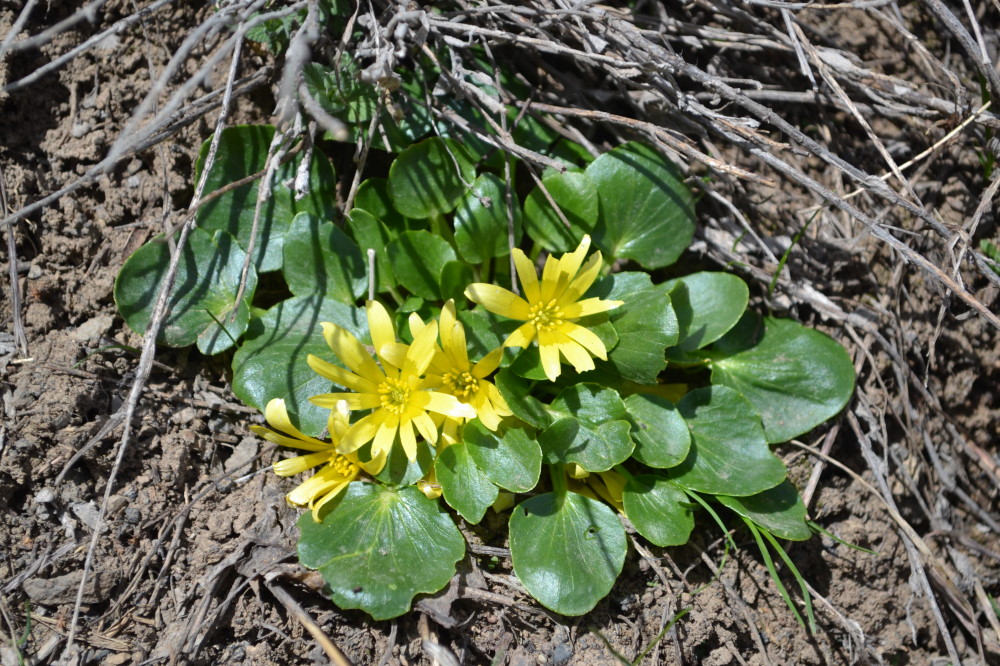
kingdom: Plantae
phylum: Tracheophyta
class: Magnoliopsida
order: Ranunculales
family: Ranunculaceae
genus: Ficaria
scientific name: Ficaria calthifolia
